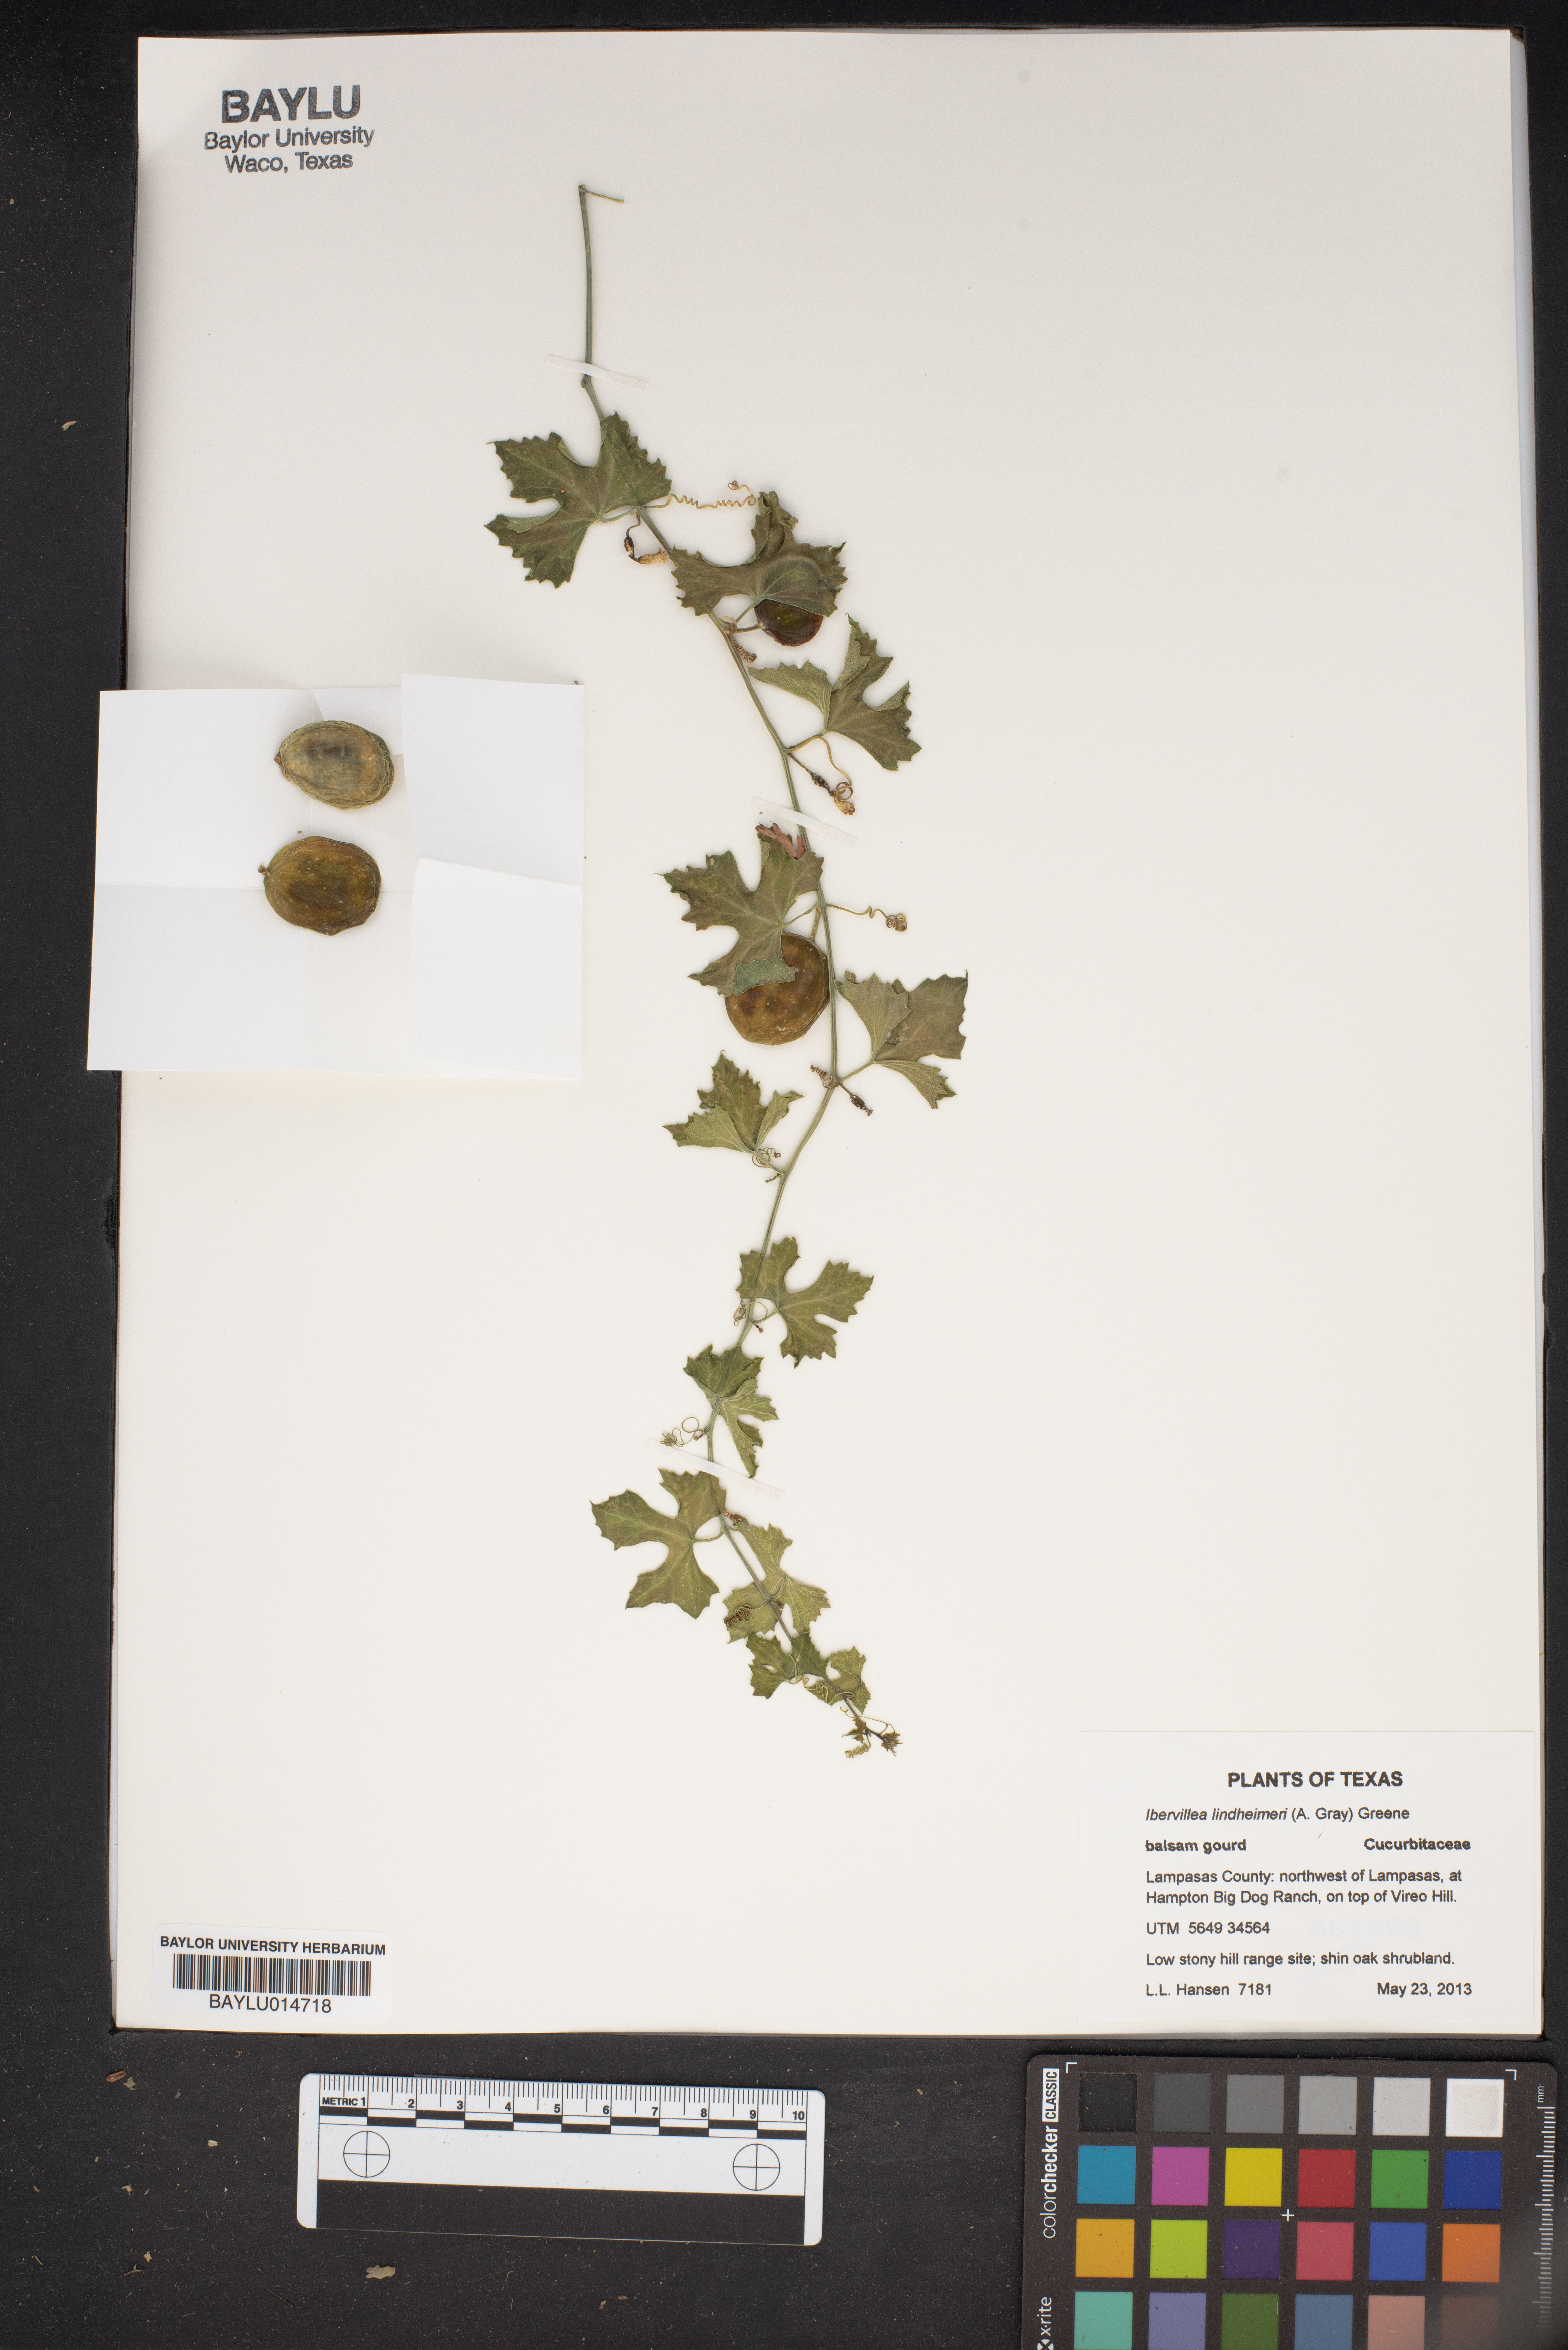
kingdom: Plantae
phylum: Tracheophyta
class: Magnoliopsida
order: Cucurbitales
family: Cucurbitaceae
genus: Ibervillea
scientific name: Ibervillea lindheimeri
